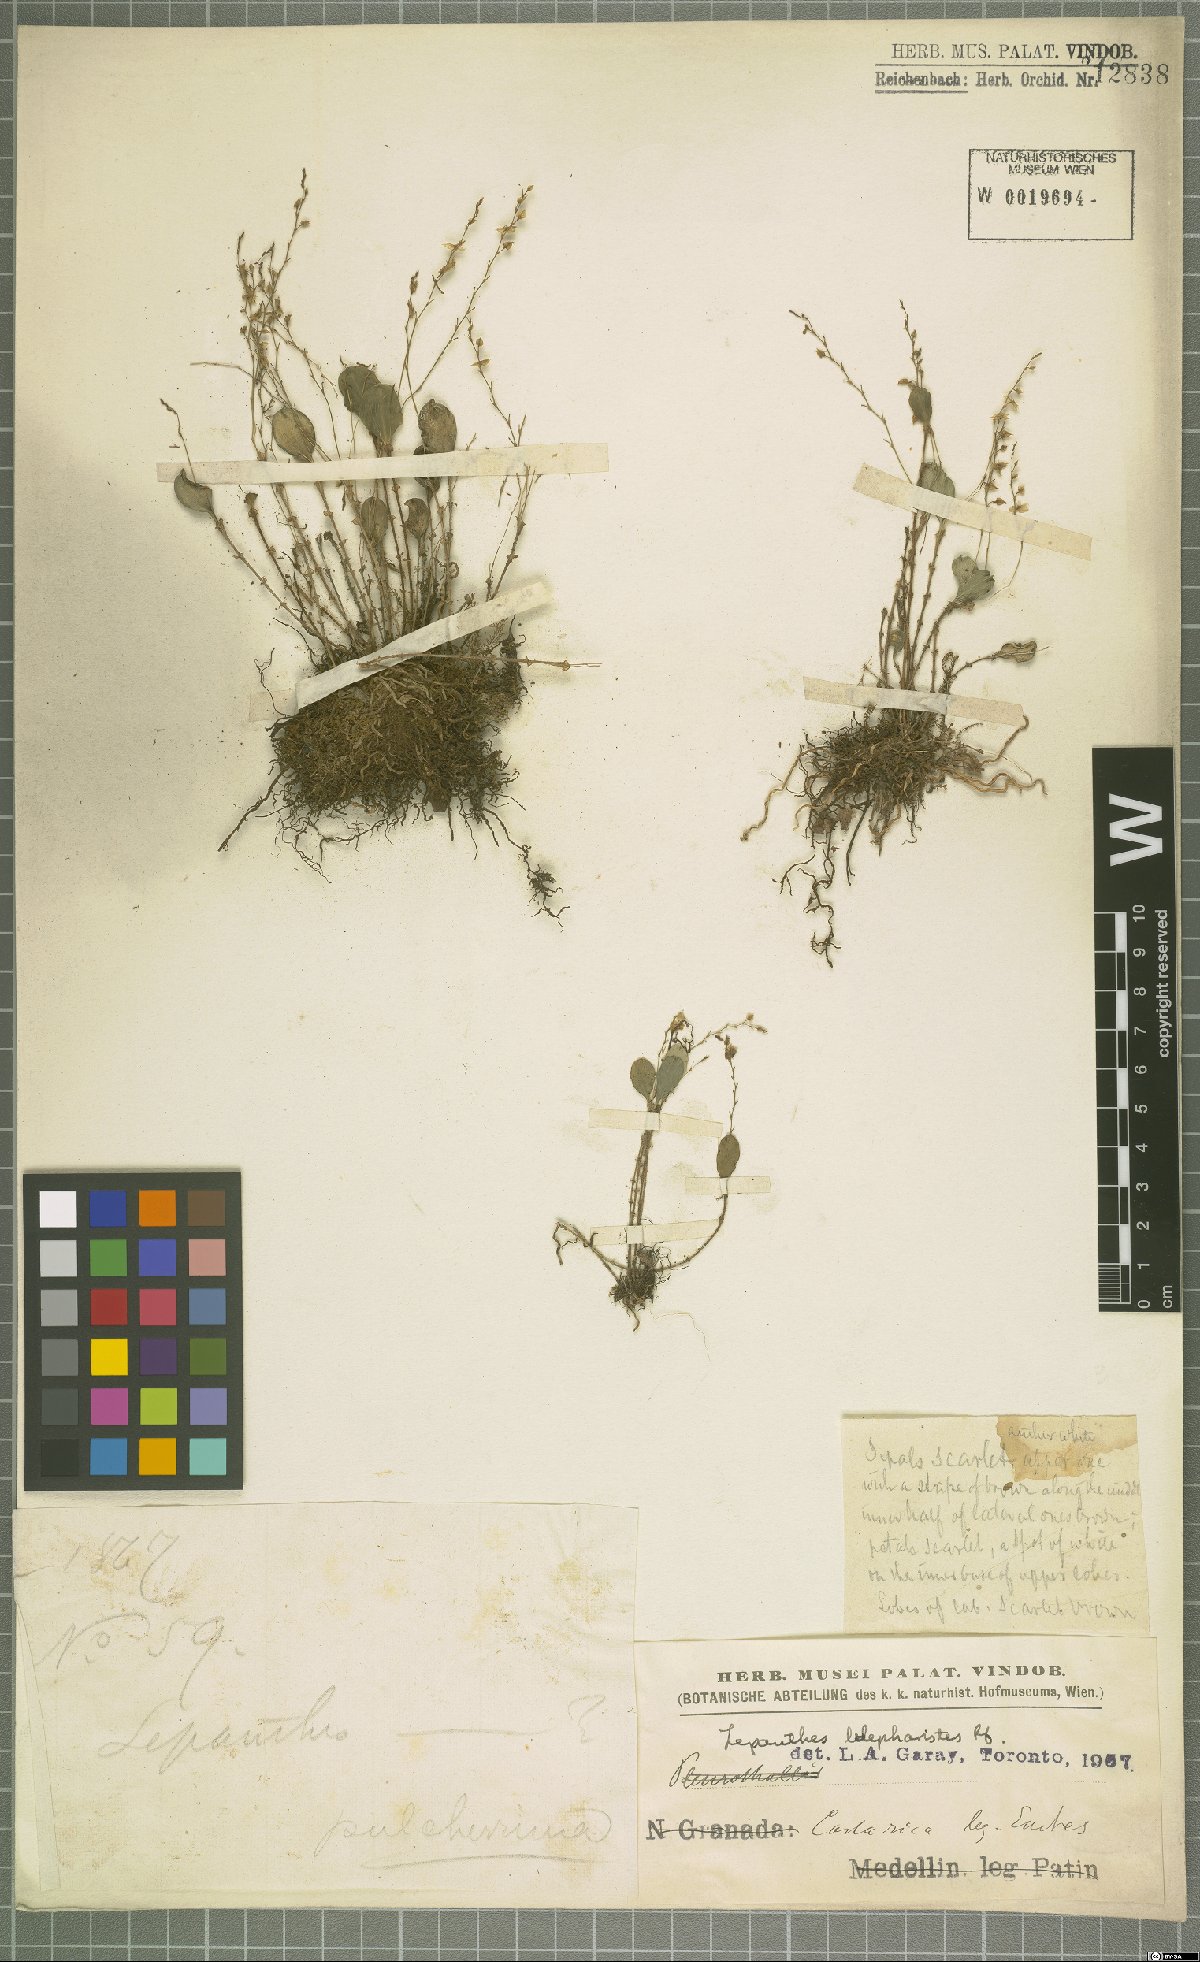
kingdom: Plantae
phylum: Tracheophyta
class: Liliopsida
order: Asparagales
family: Orchidaceae
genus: Lepanthes
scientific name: Lepanthes blepharistes
